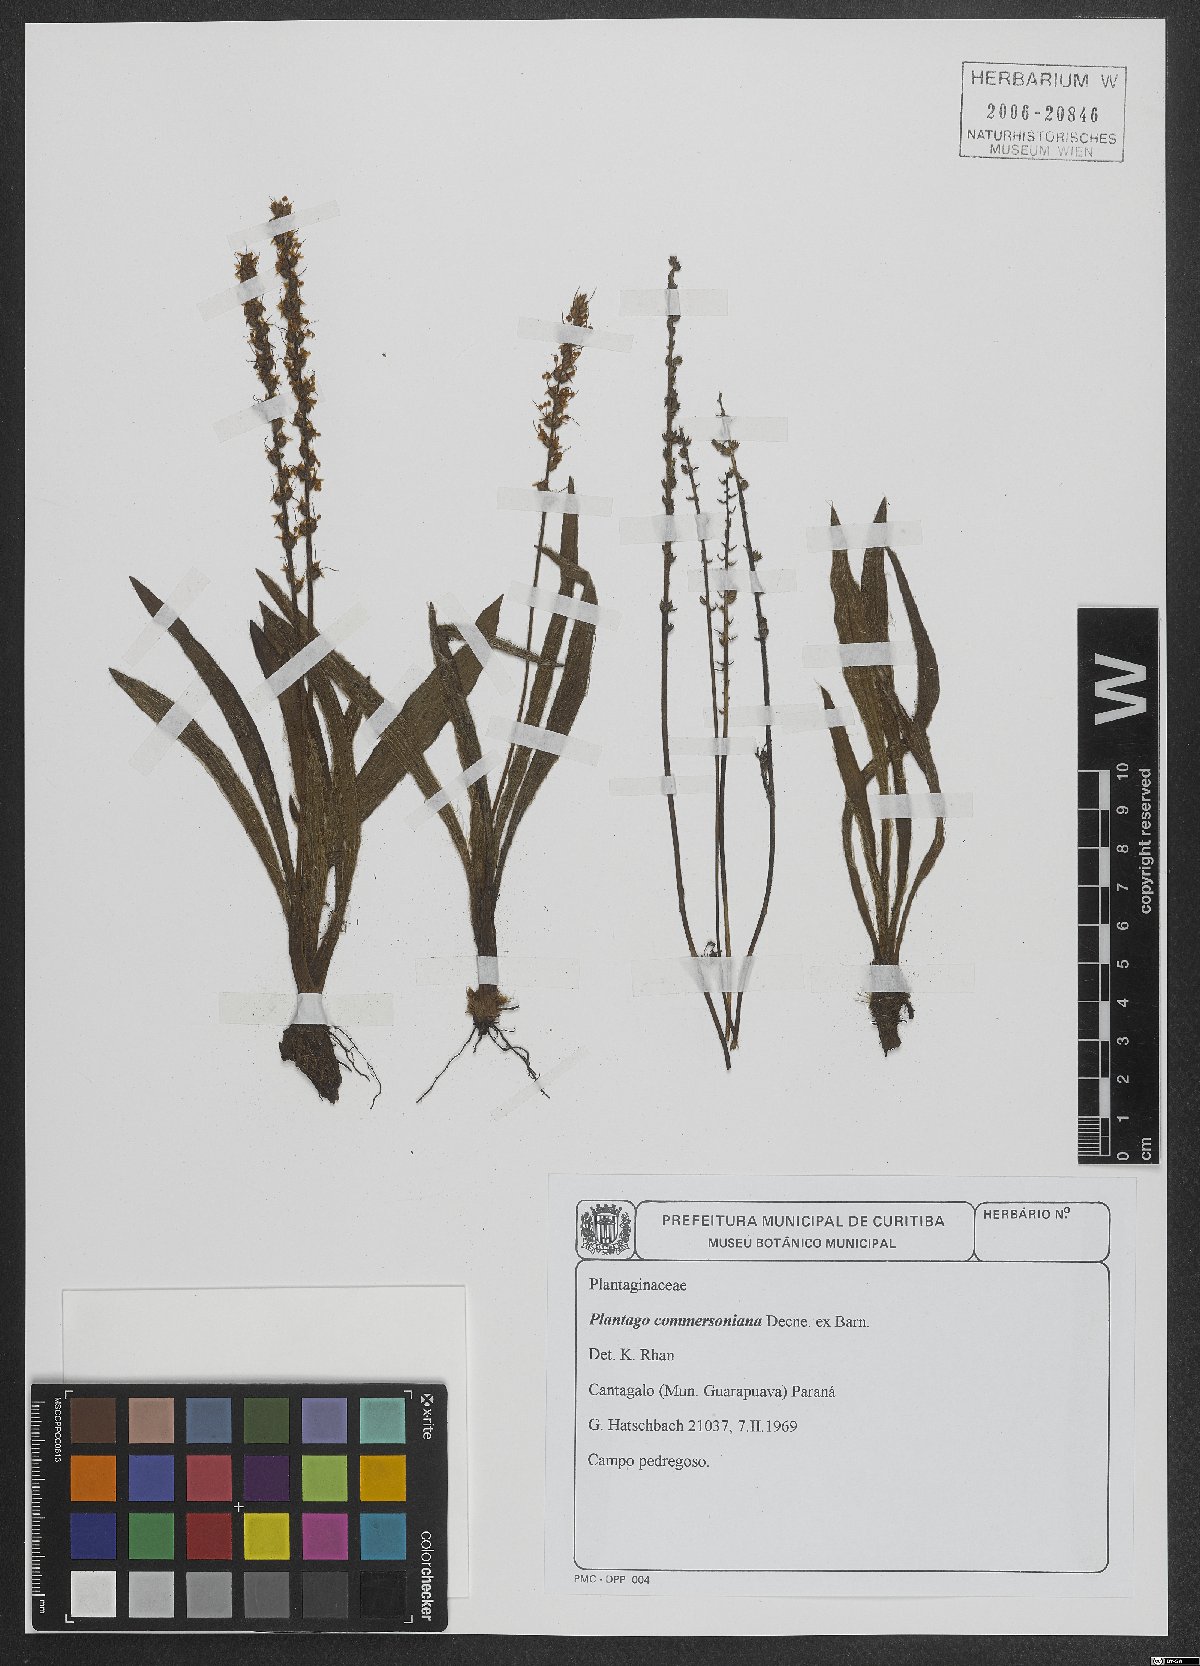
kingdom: Plantae
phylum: Tracheophyta
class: Magnoliopsida
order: Lamiales
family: Plantaginaceae
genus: Plantago
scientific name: Plantago commersoniana
